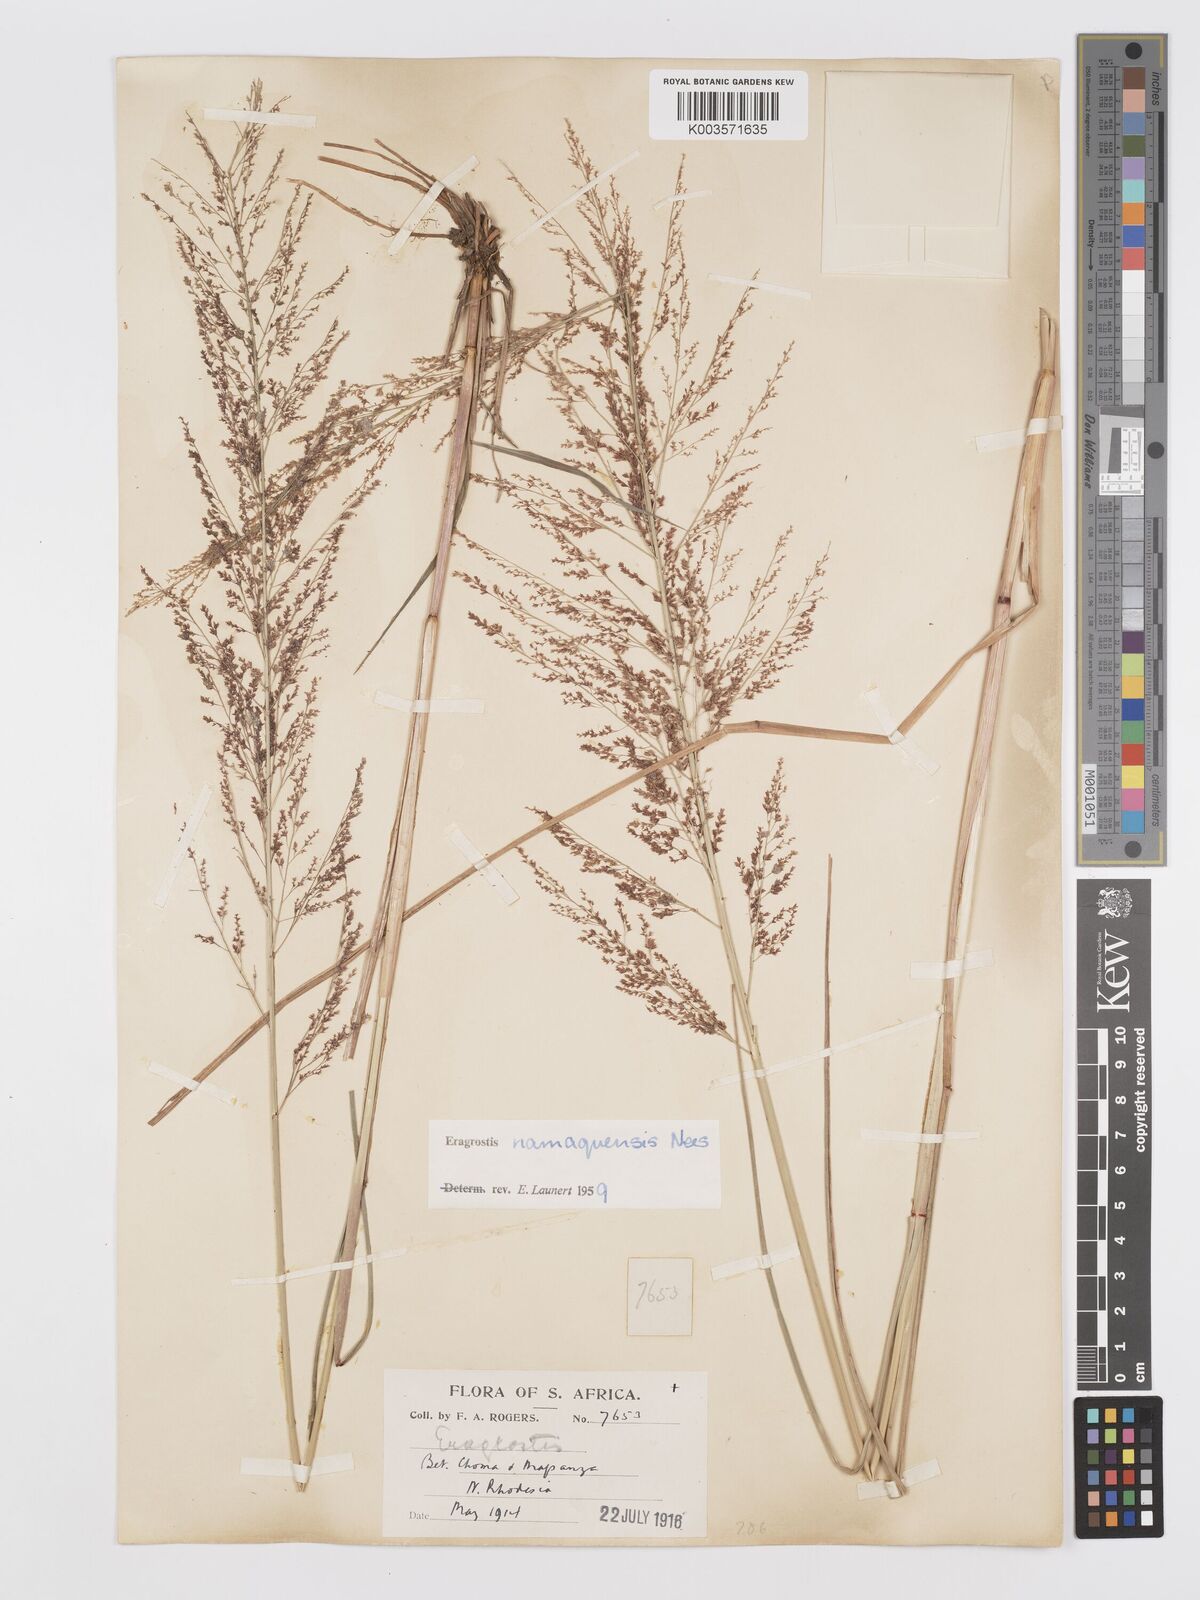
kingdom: Plantae
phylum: Tracheophyta
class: Liliopsida
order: Poales
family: Poaceae
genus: Eragrostis
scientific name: Eragrostis japonica
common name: Pond lovegrass
